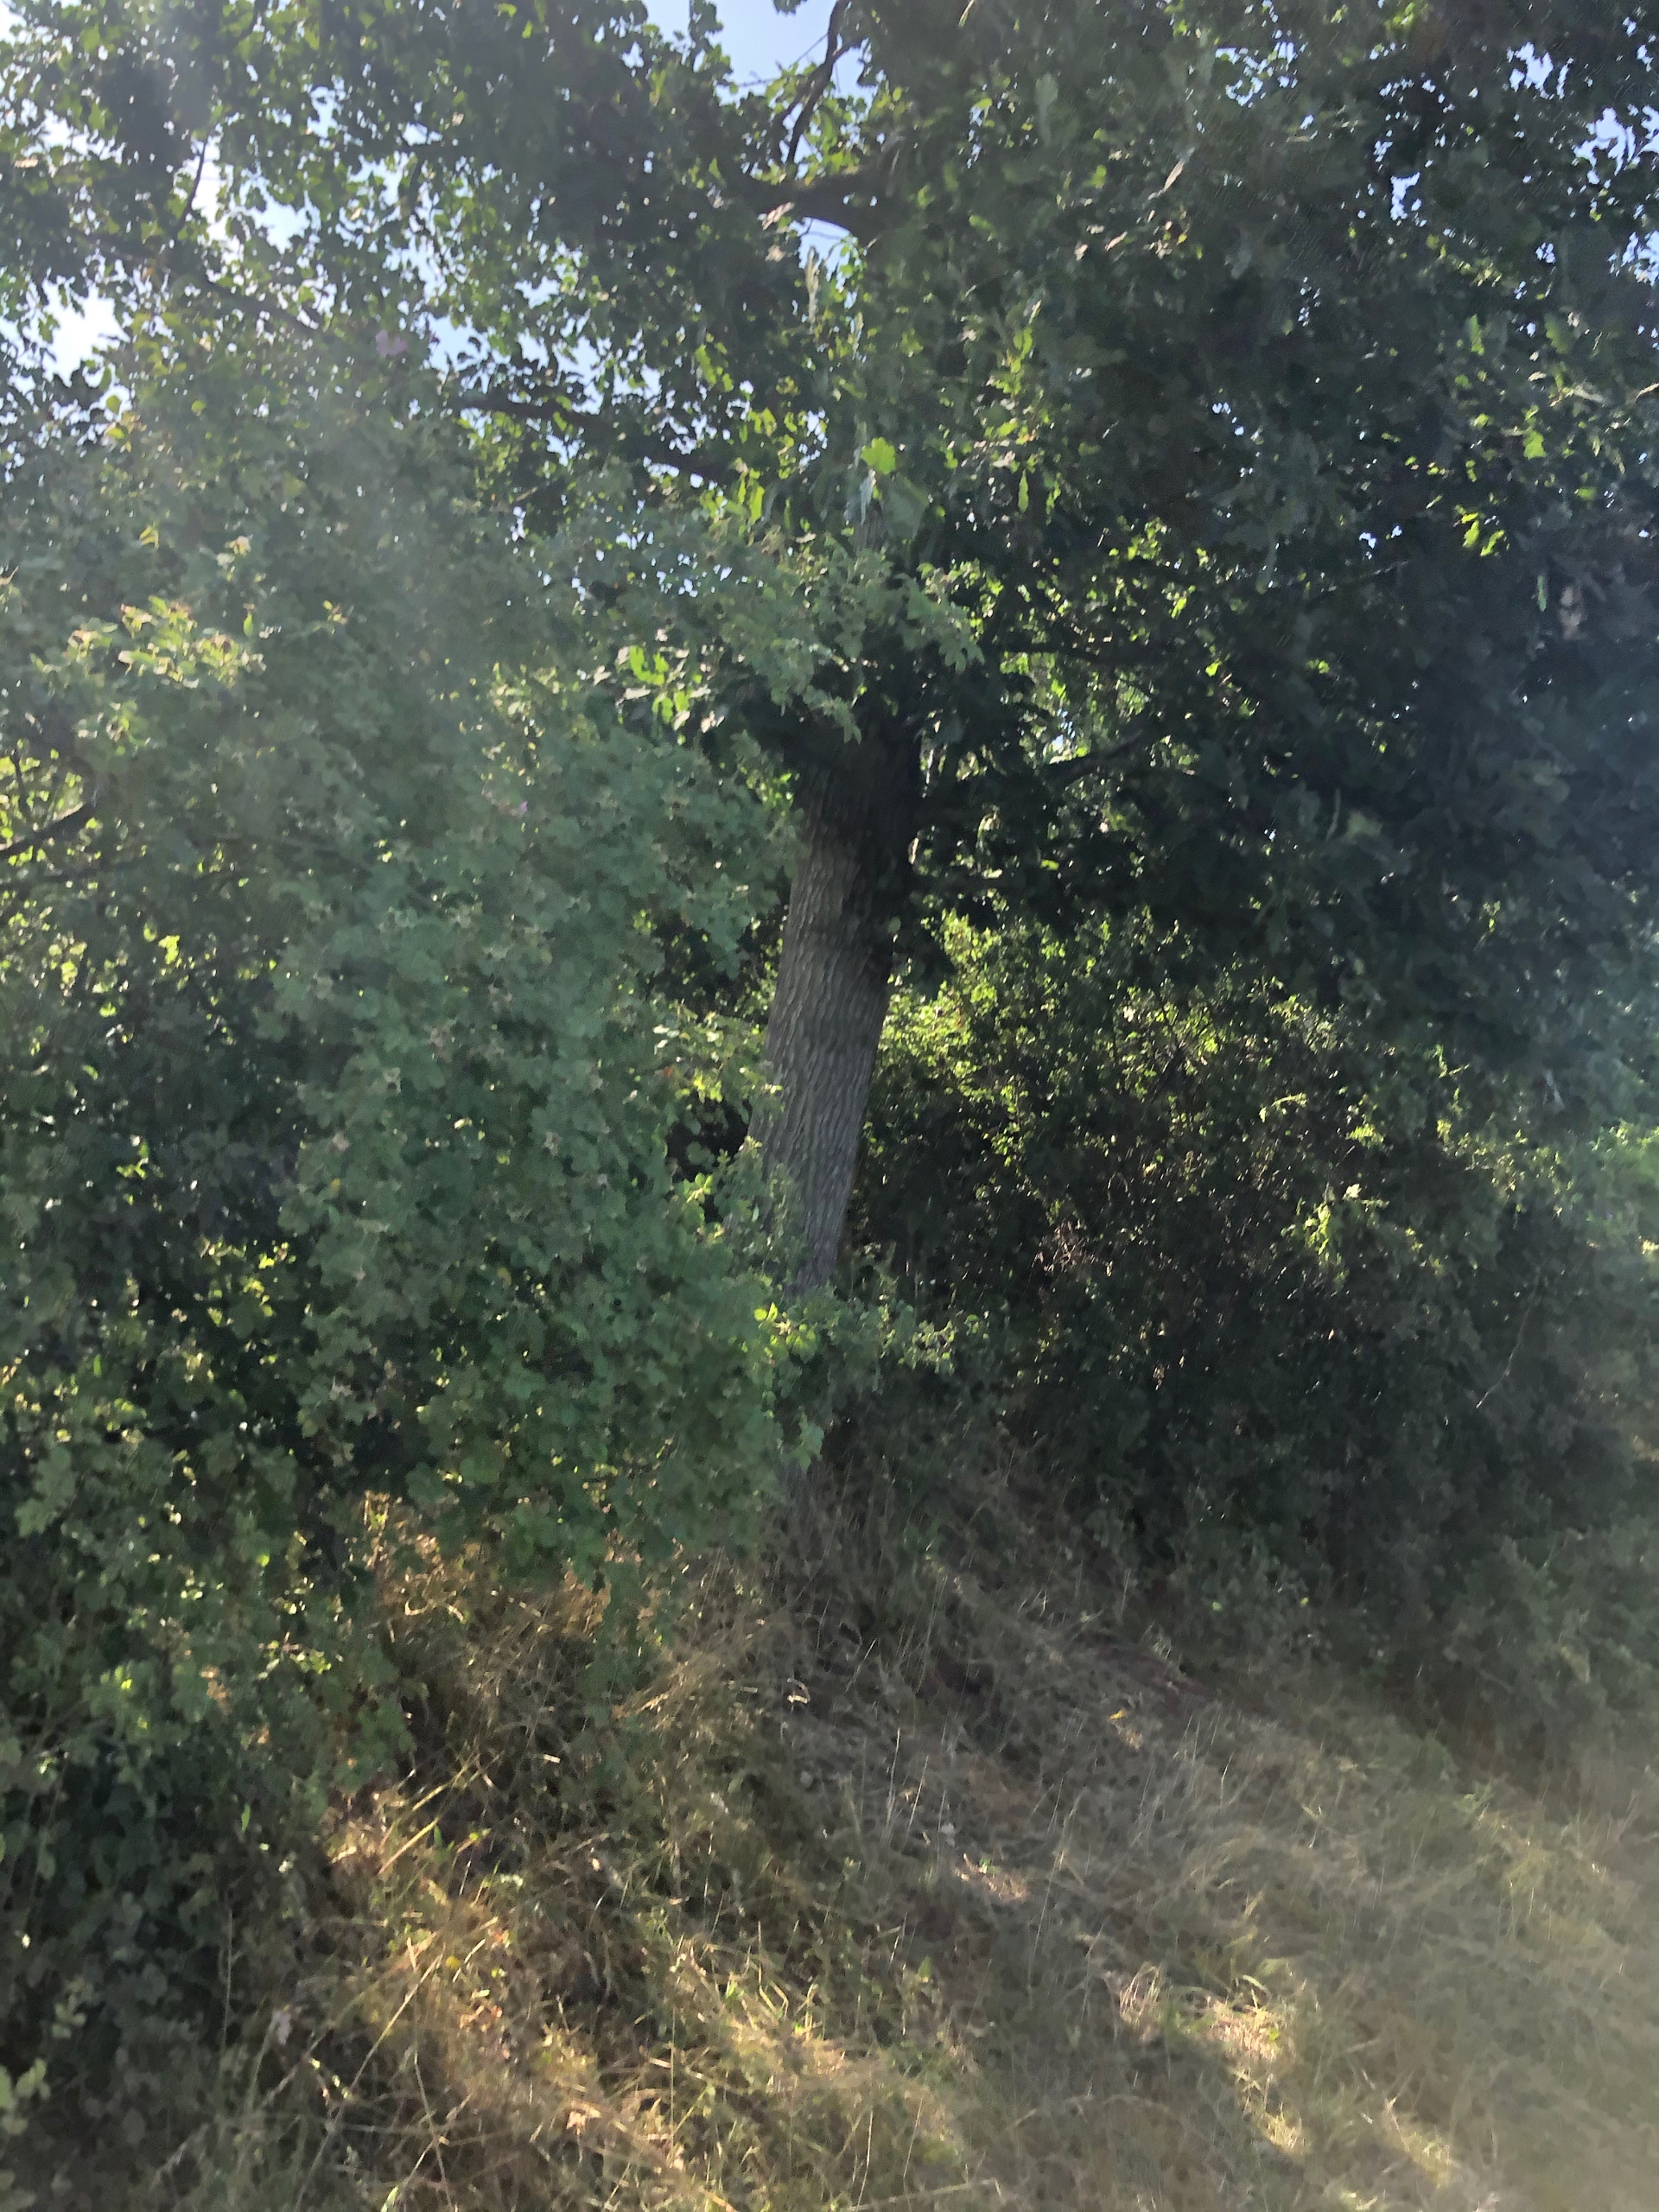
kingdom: Plantae
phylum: Tracheophyta
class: Magnoliopsida
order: Fagales
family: Fagaceae
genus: Quercus
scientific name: Quercus robur
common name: Stilk-eg/almindelig eg
